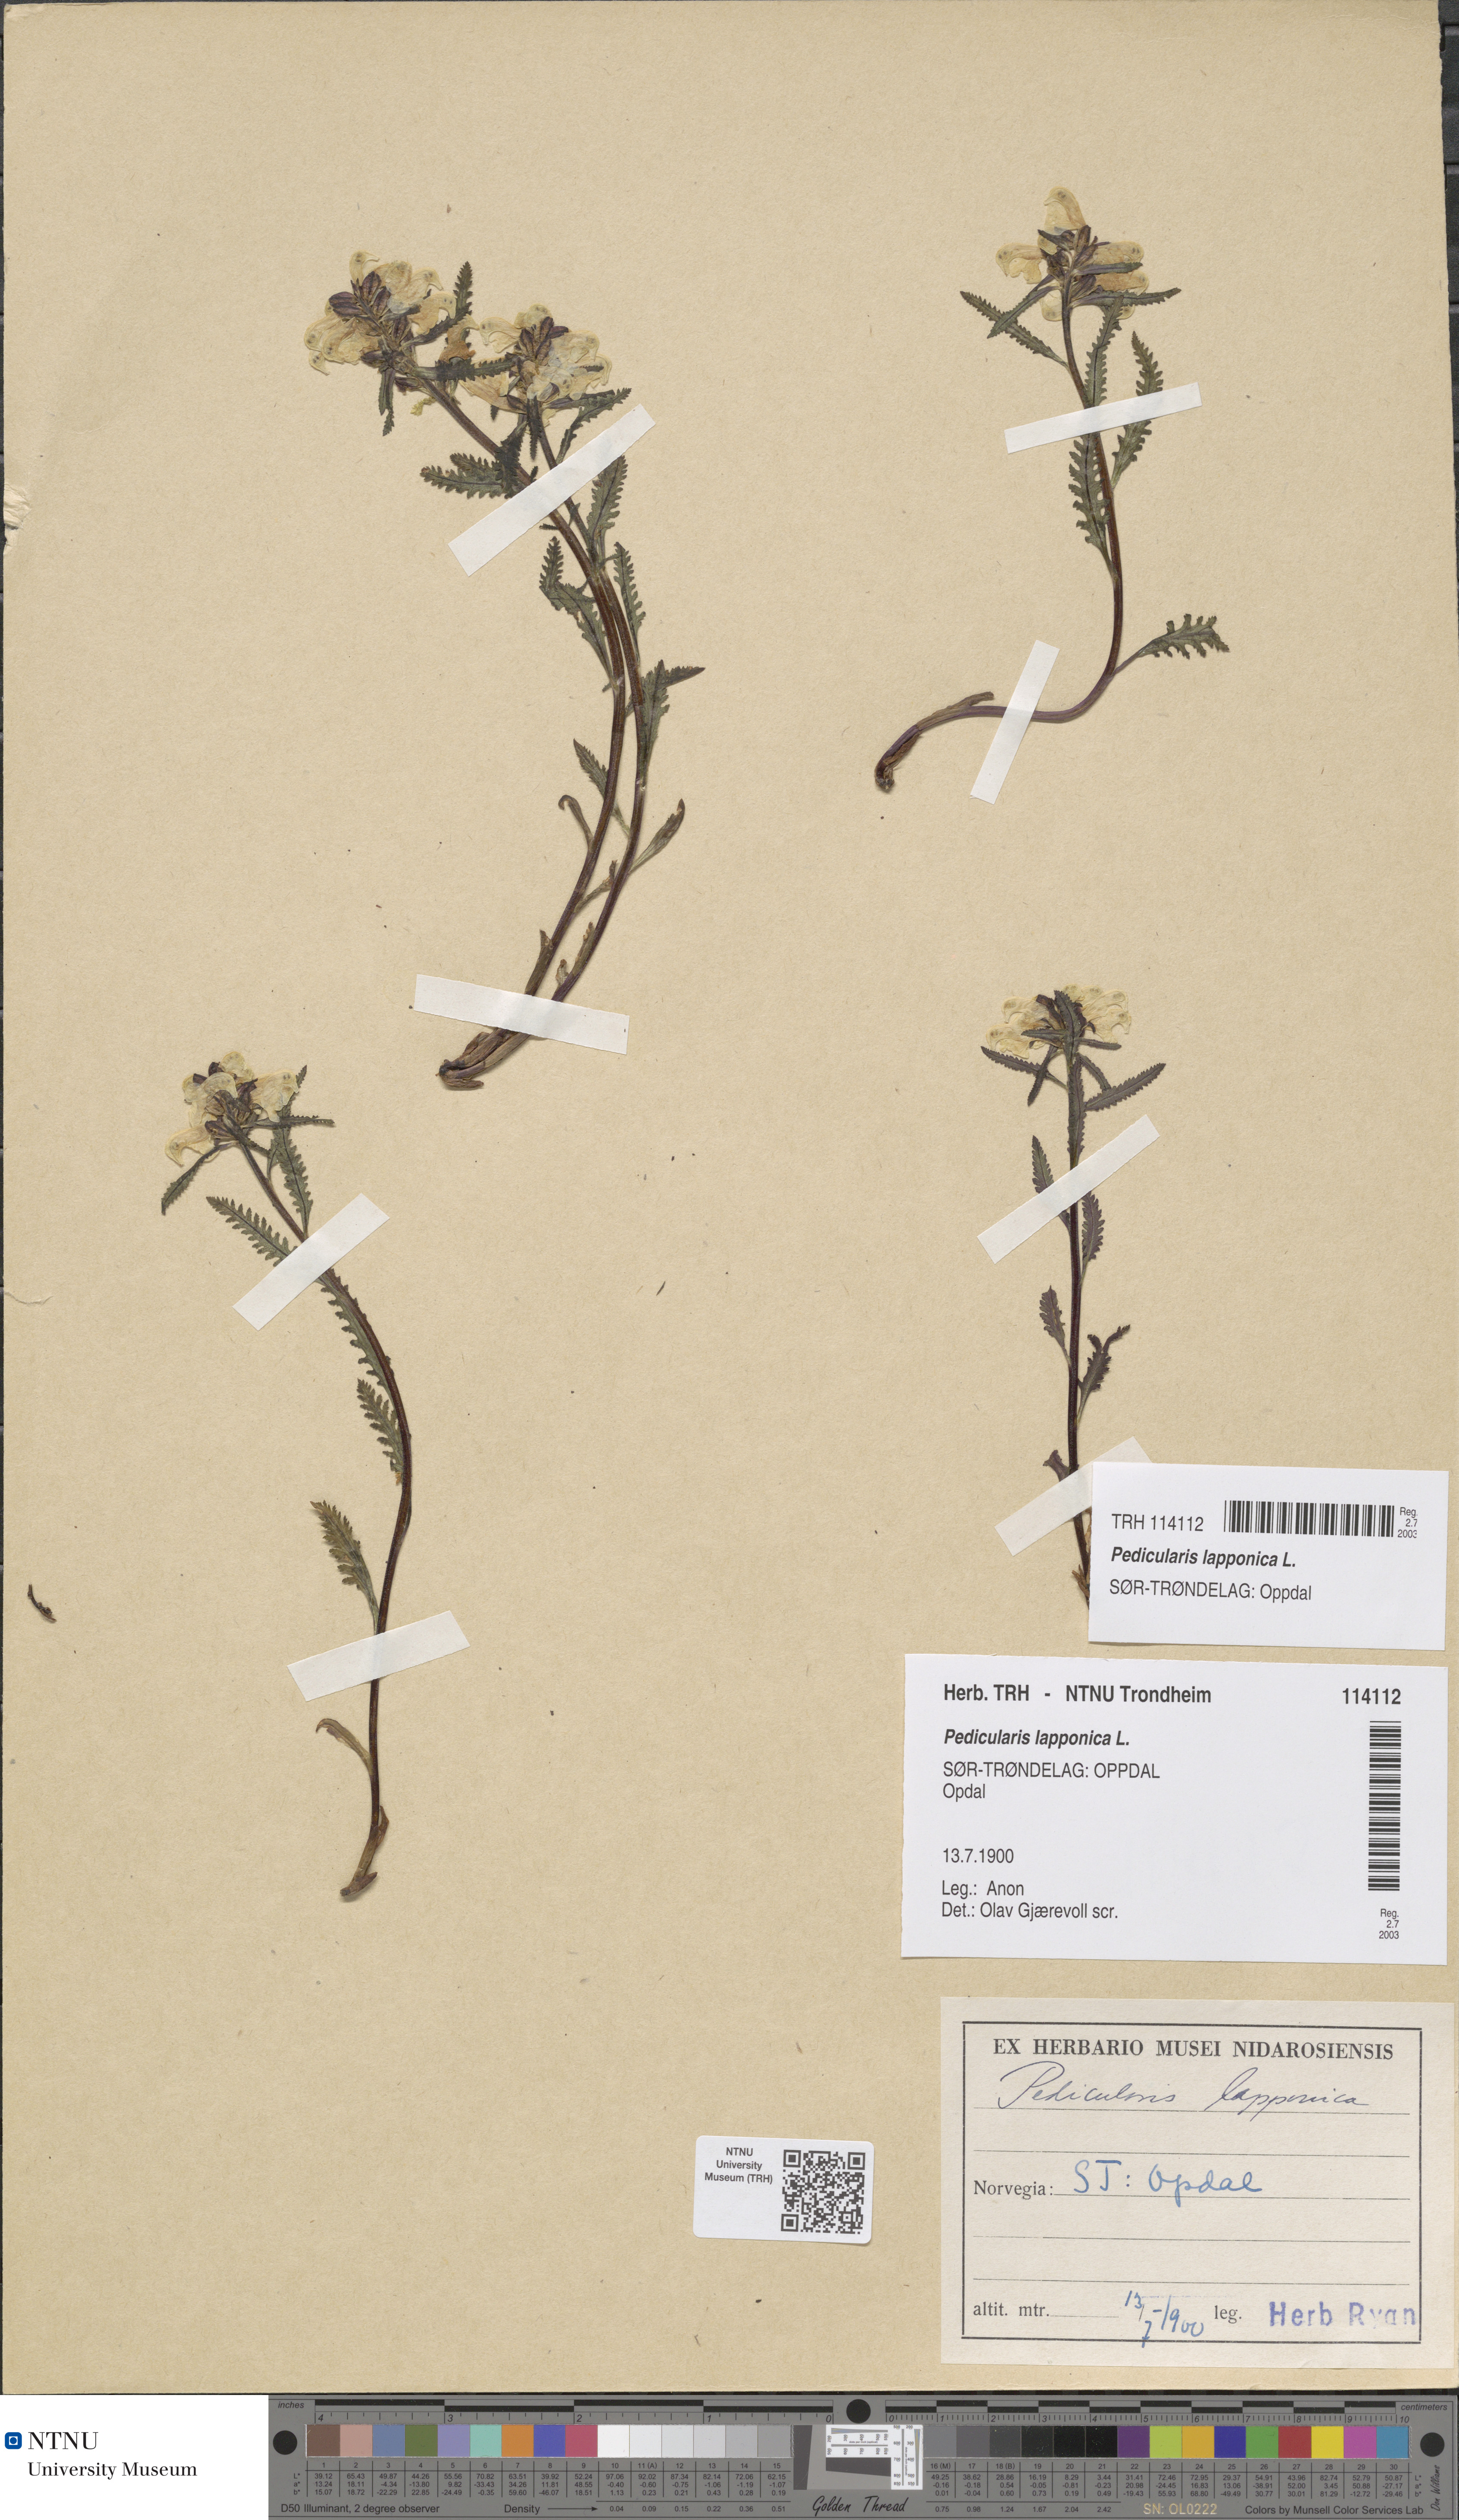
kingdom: Plantae
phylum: Tracheophyta
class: Magnoliopsida
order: Lamiales
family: Orobanchaceae
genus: Pedicularis
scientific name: Pedicularis lapponica
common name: Lapland lousewort
